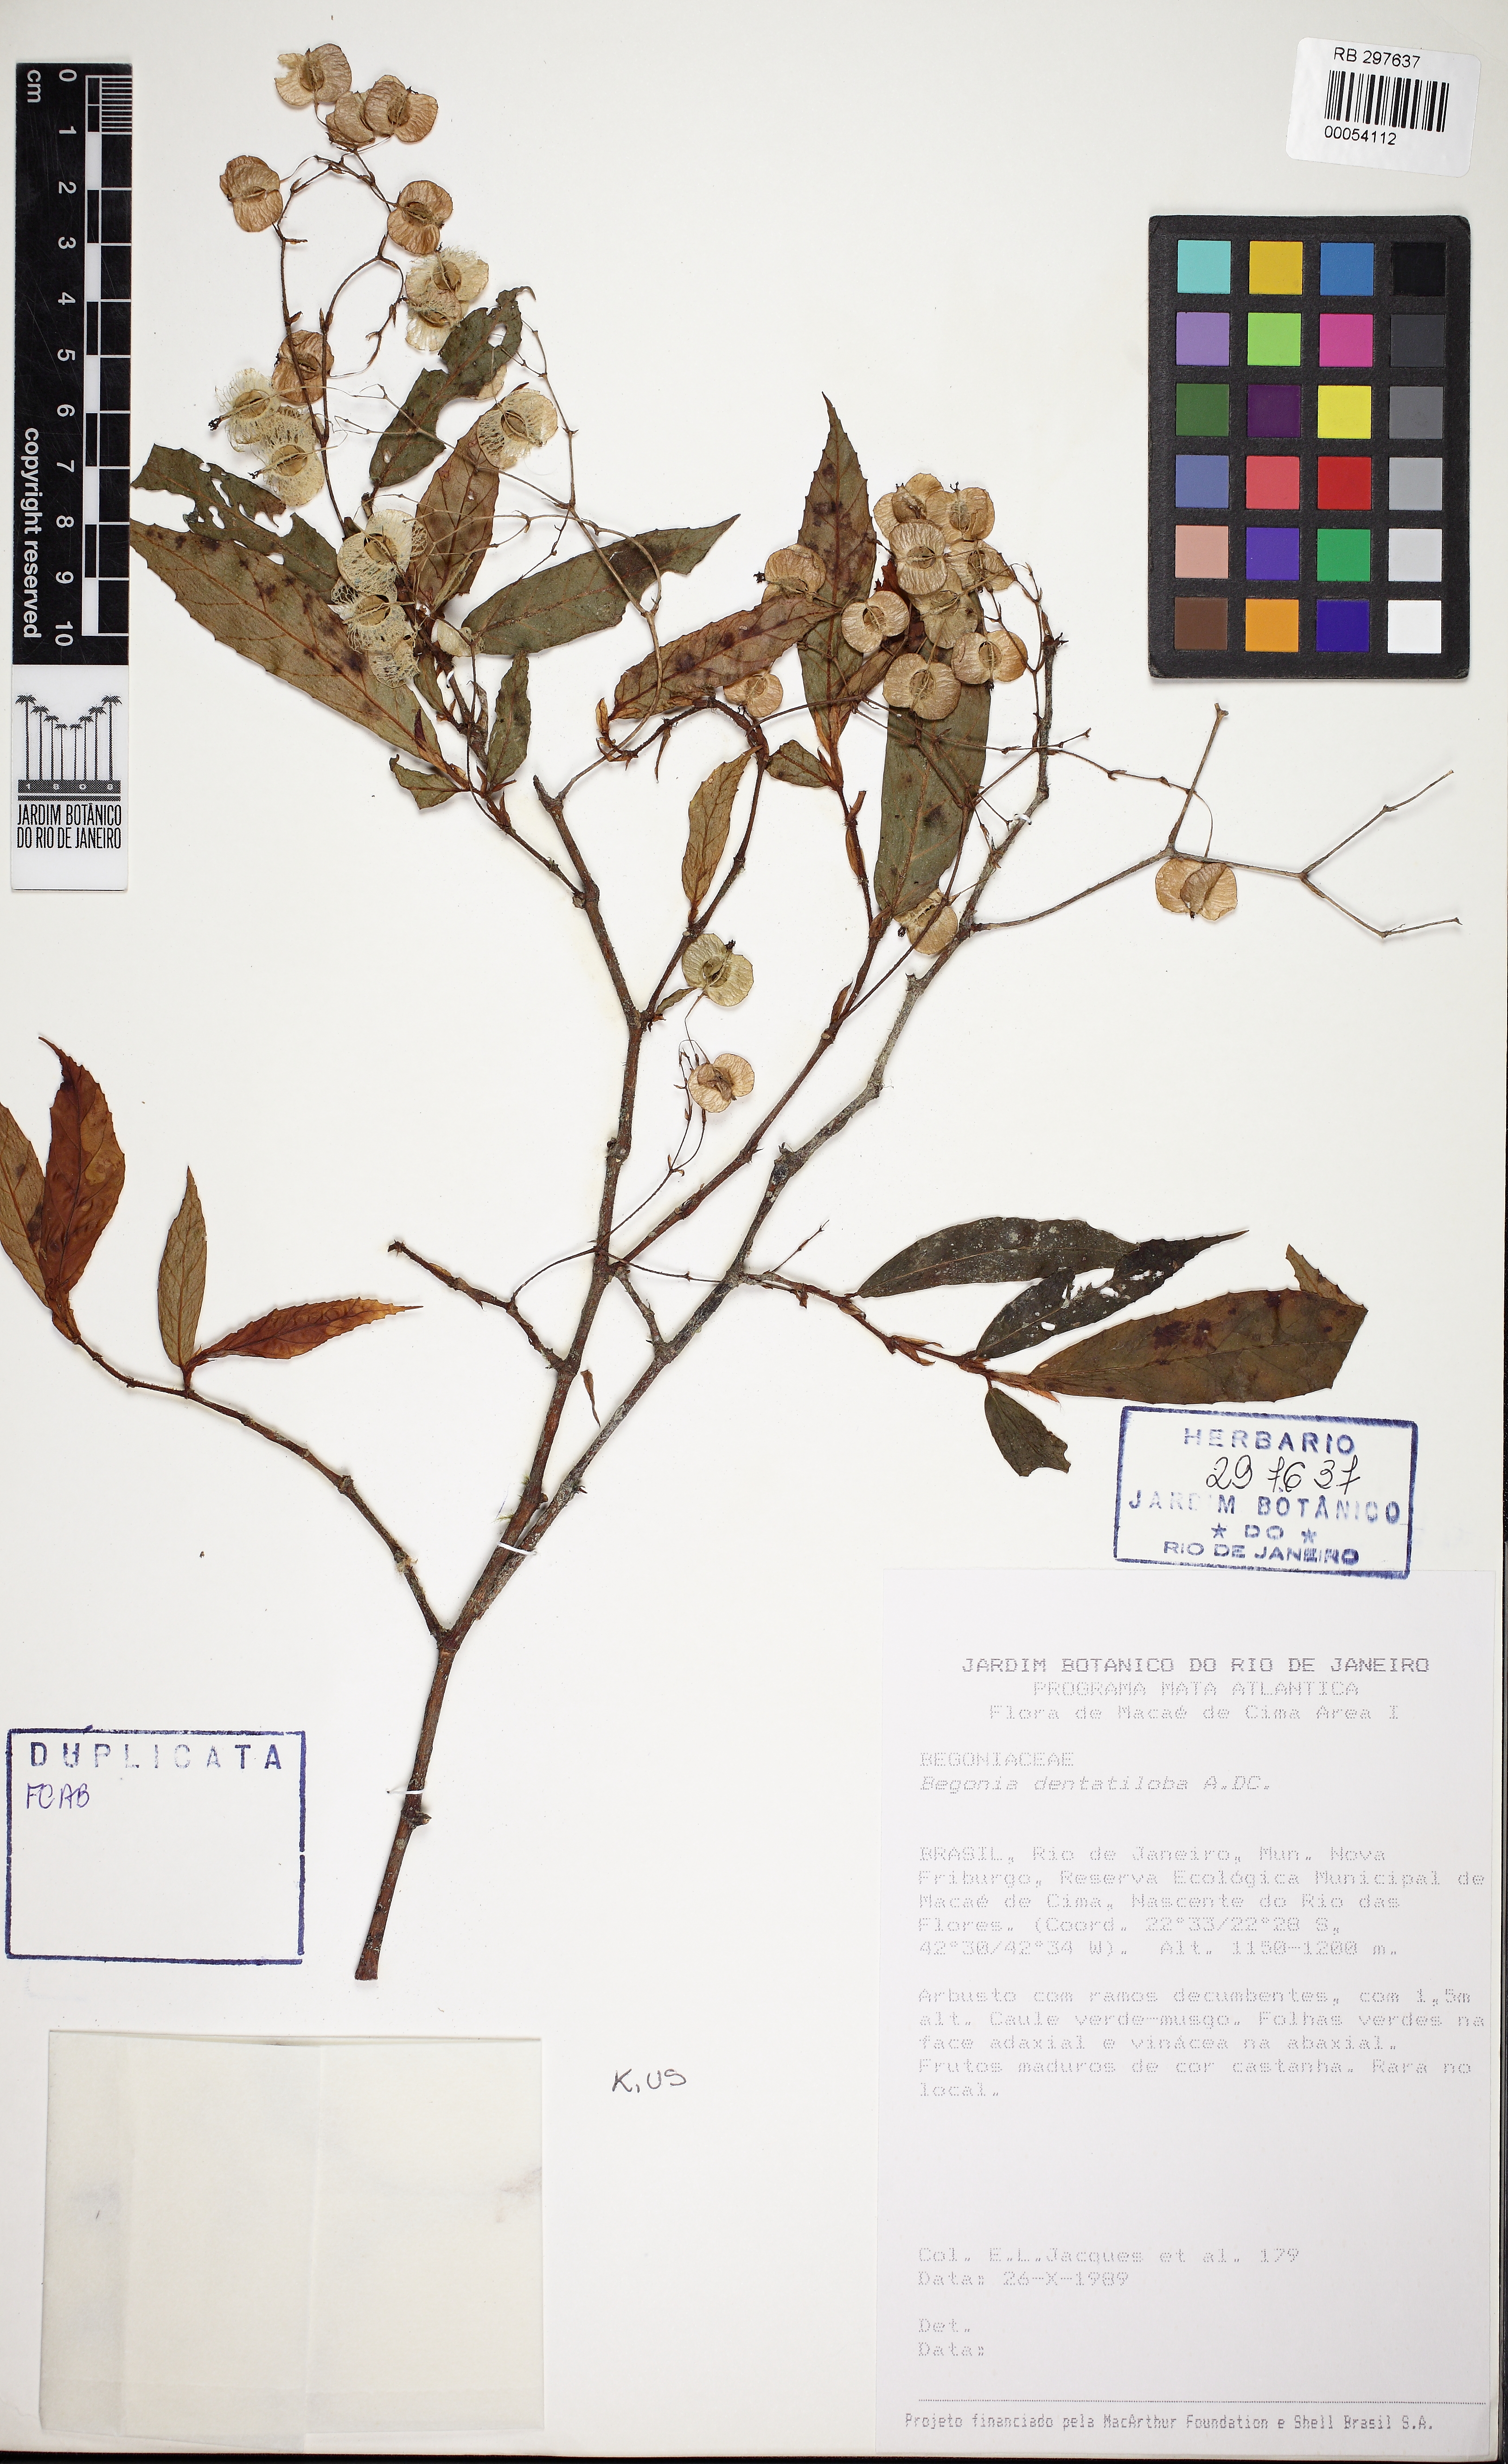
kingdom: Plantae
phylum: Tracheophyta
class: Magnoliopsida
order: Cucurbitales
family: Begoniaceae
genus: Begonia
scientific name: Begonia dentatiloba
